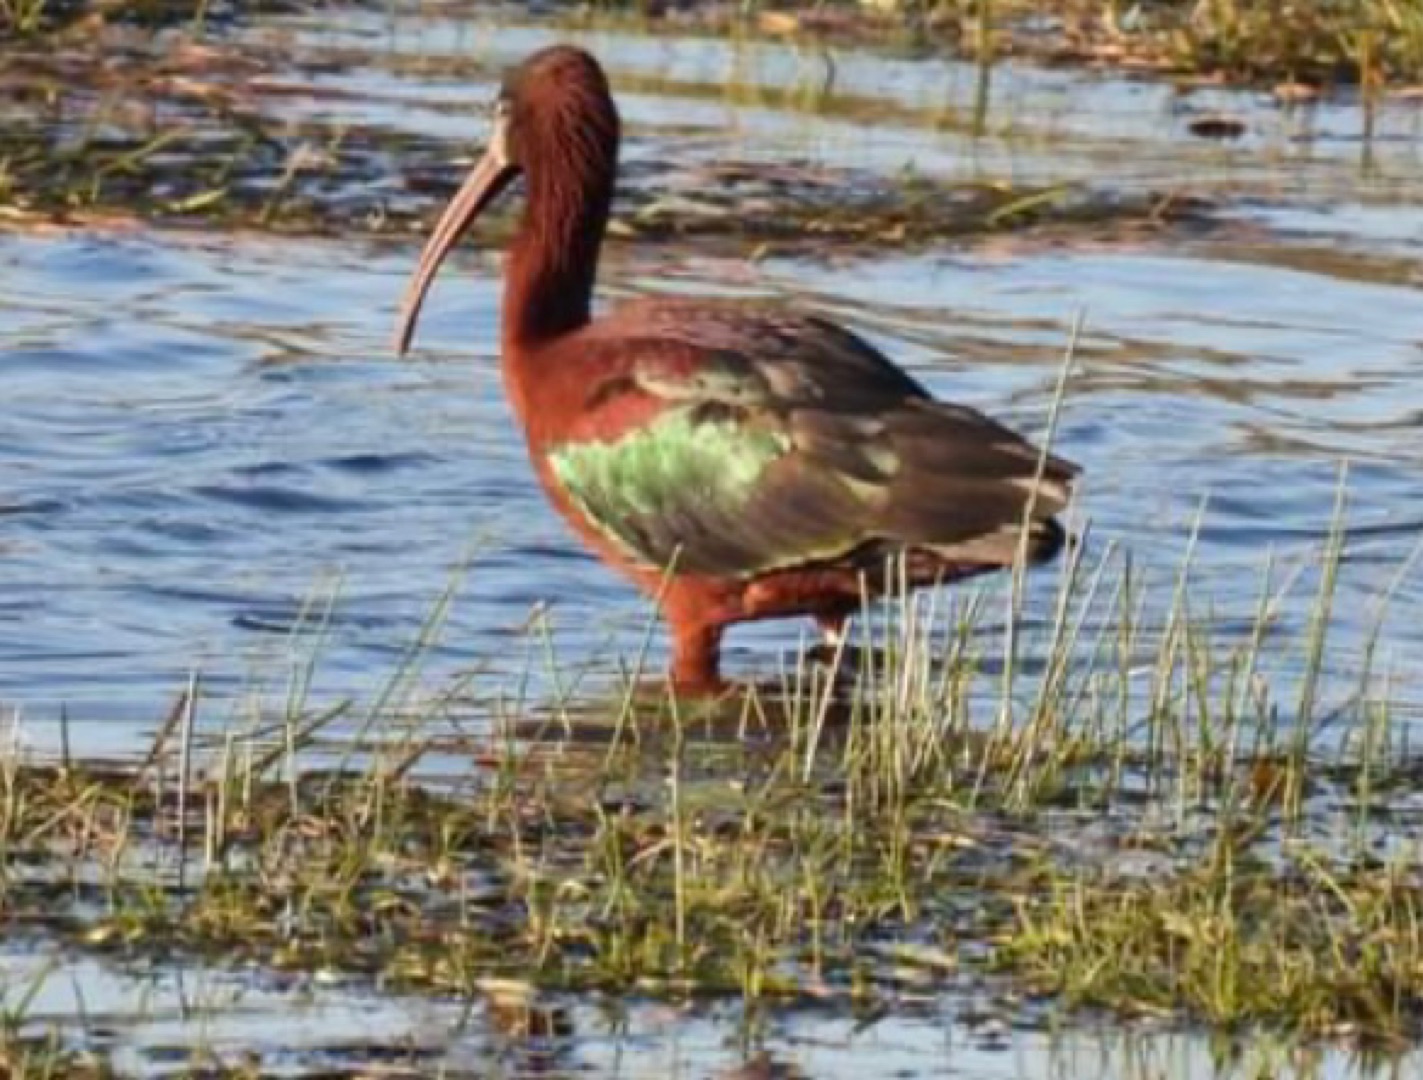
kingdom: Animalia
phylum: Chordata
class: Aves
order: Pelecaniformes
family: Threskiornithidae
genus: Plegadis
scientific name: Plegadis falcinellus
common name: Sort ibis
